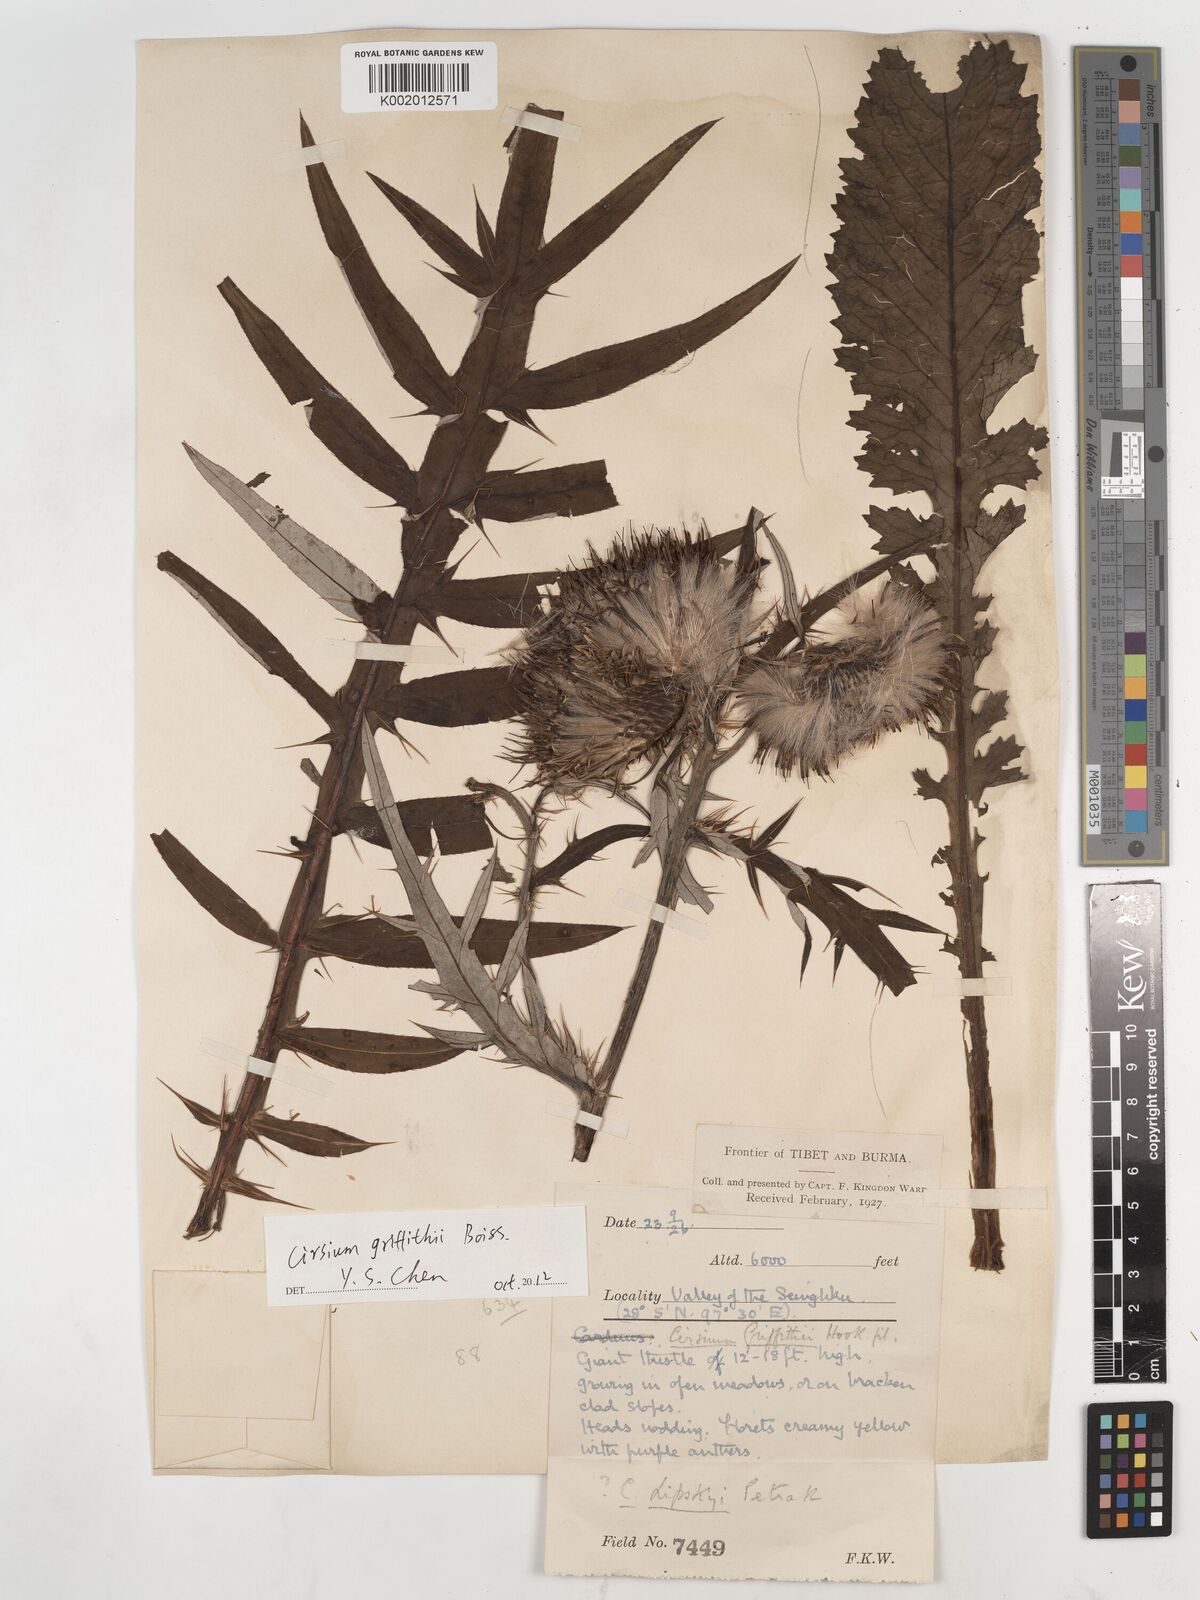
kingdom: Plantae
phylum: Tracheophyta
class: Magnoliopsida
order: Asterales
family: Asteraceae
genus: Lophiolepis
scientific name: Lophiolepis griffithii
